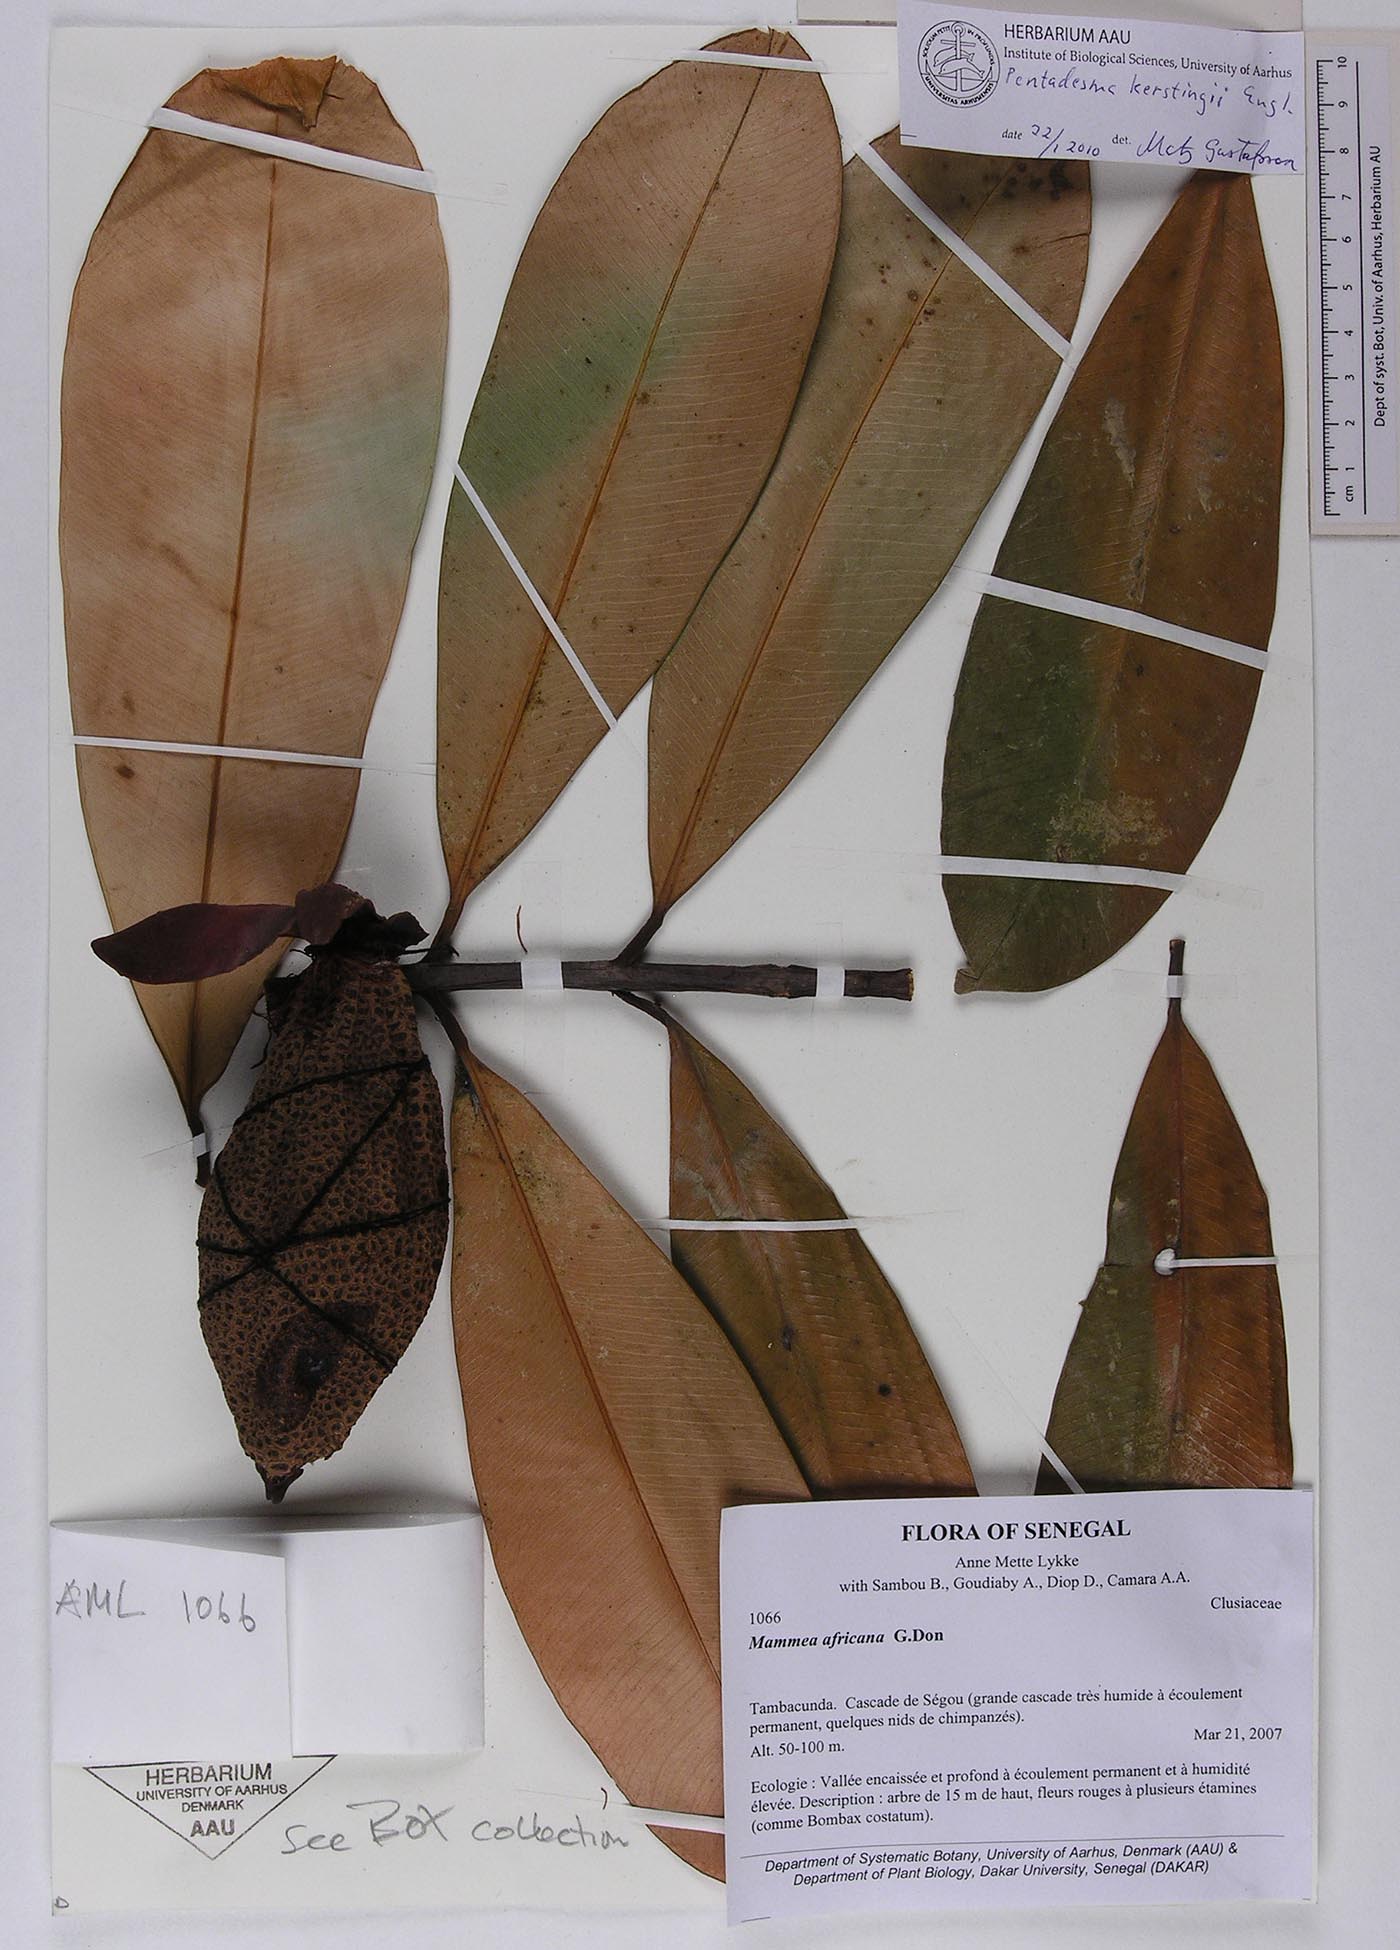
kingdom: Plantae
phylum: Tracheophyta
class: Magnoliopsida
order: Malpighiales
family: Clusiaceae
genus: Pentadesma
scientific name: Pentadesma butyracea
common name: Buttertree
